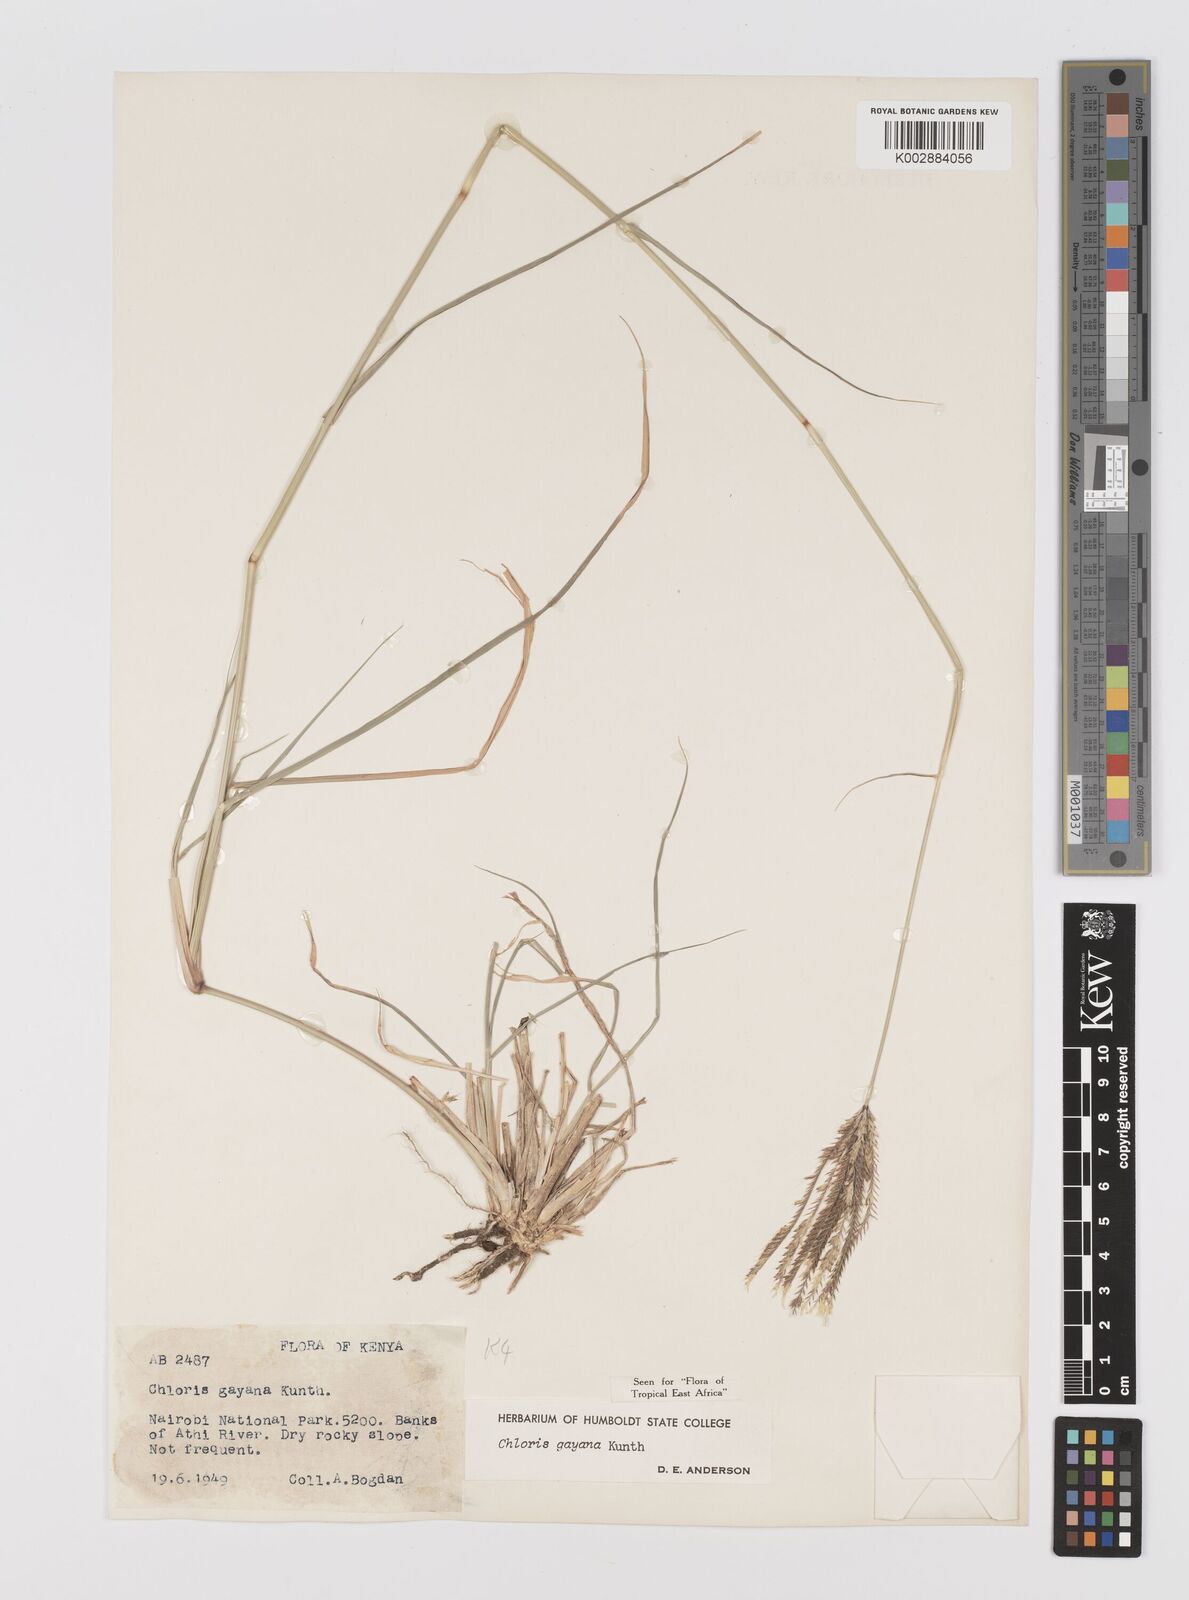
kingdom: Plantae
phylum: Tracheophyta
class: Liliopsida
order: Poales
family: Poaceae
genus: Chloris
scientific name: Chloris gayana
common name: Rhodes grass
